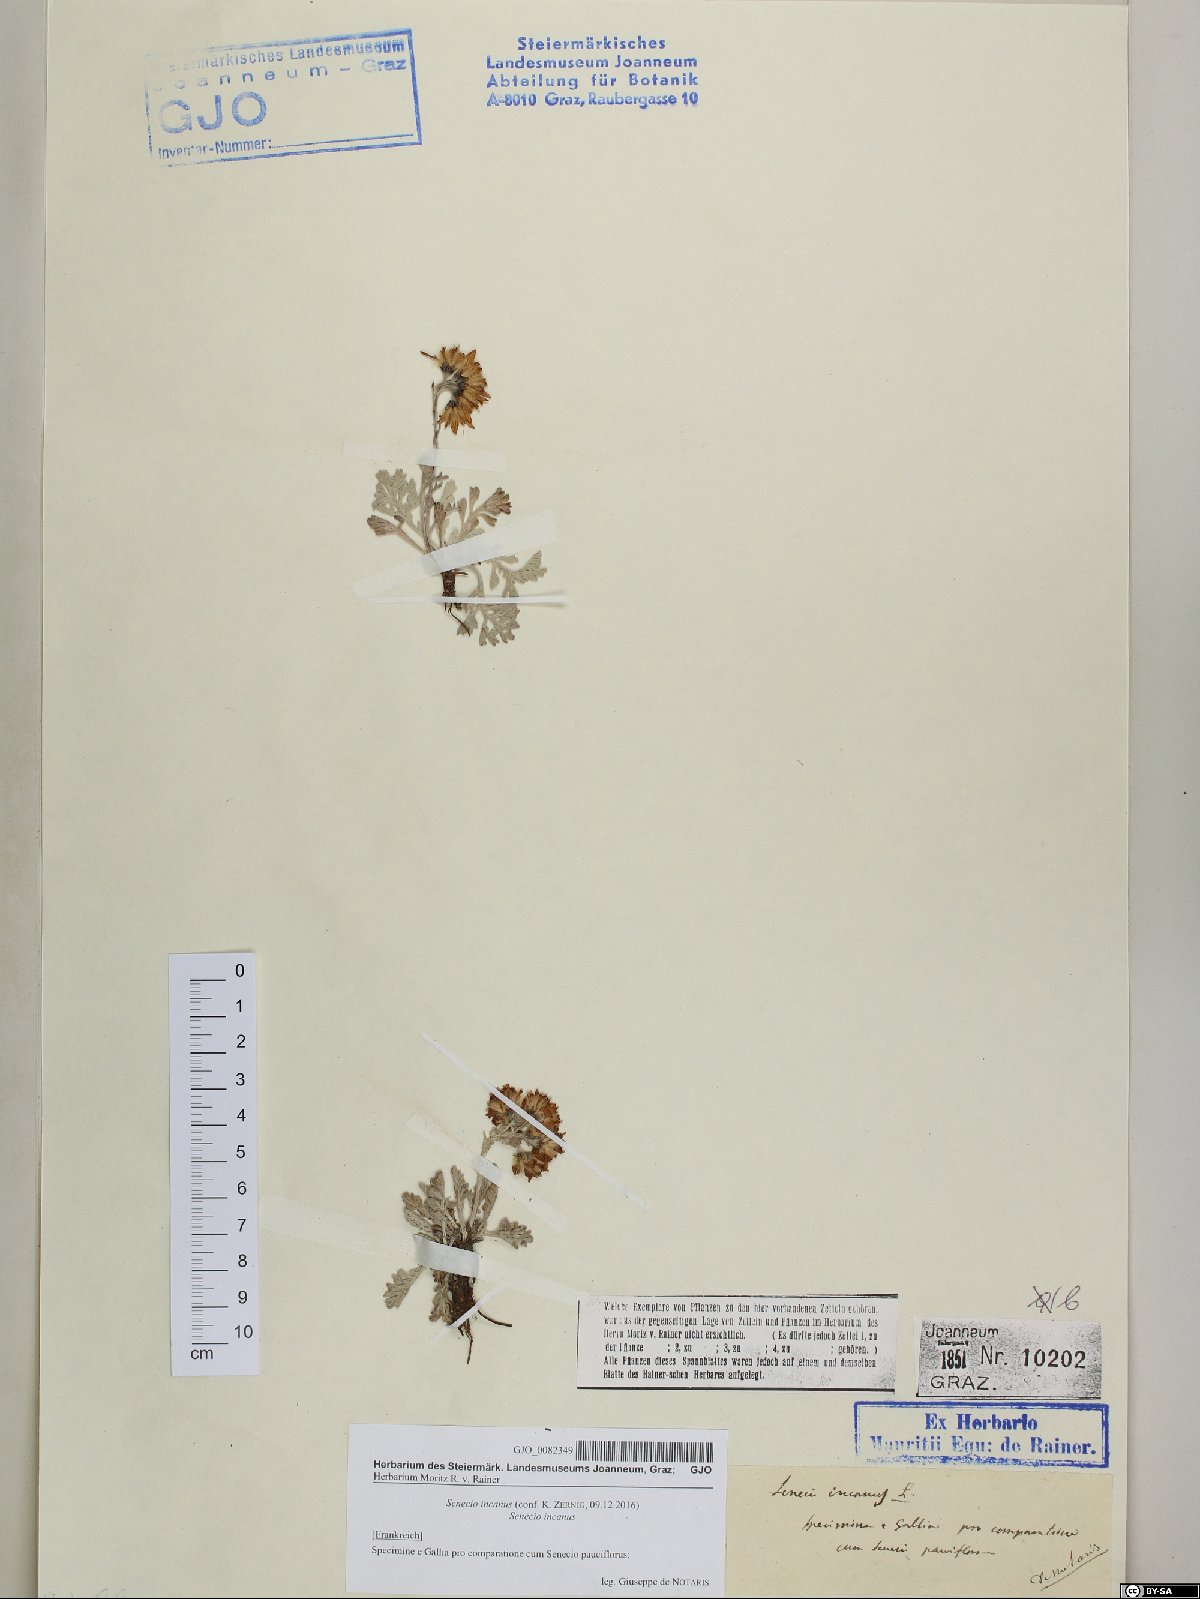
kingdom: Plantae
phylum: Tracheophyta
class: Magnoliopsida
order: Asterales
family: Asteraceae
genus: Jacobaea
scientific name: Jacobaea incana
